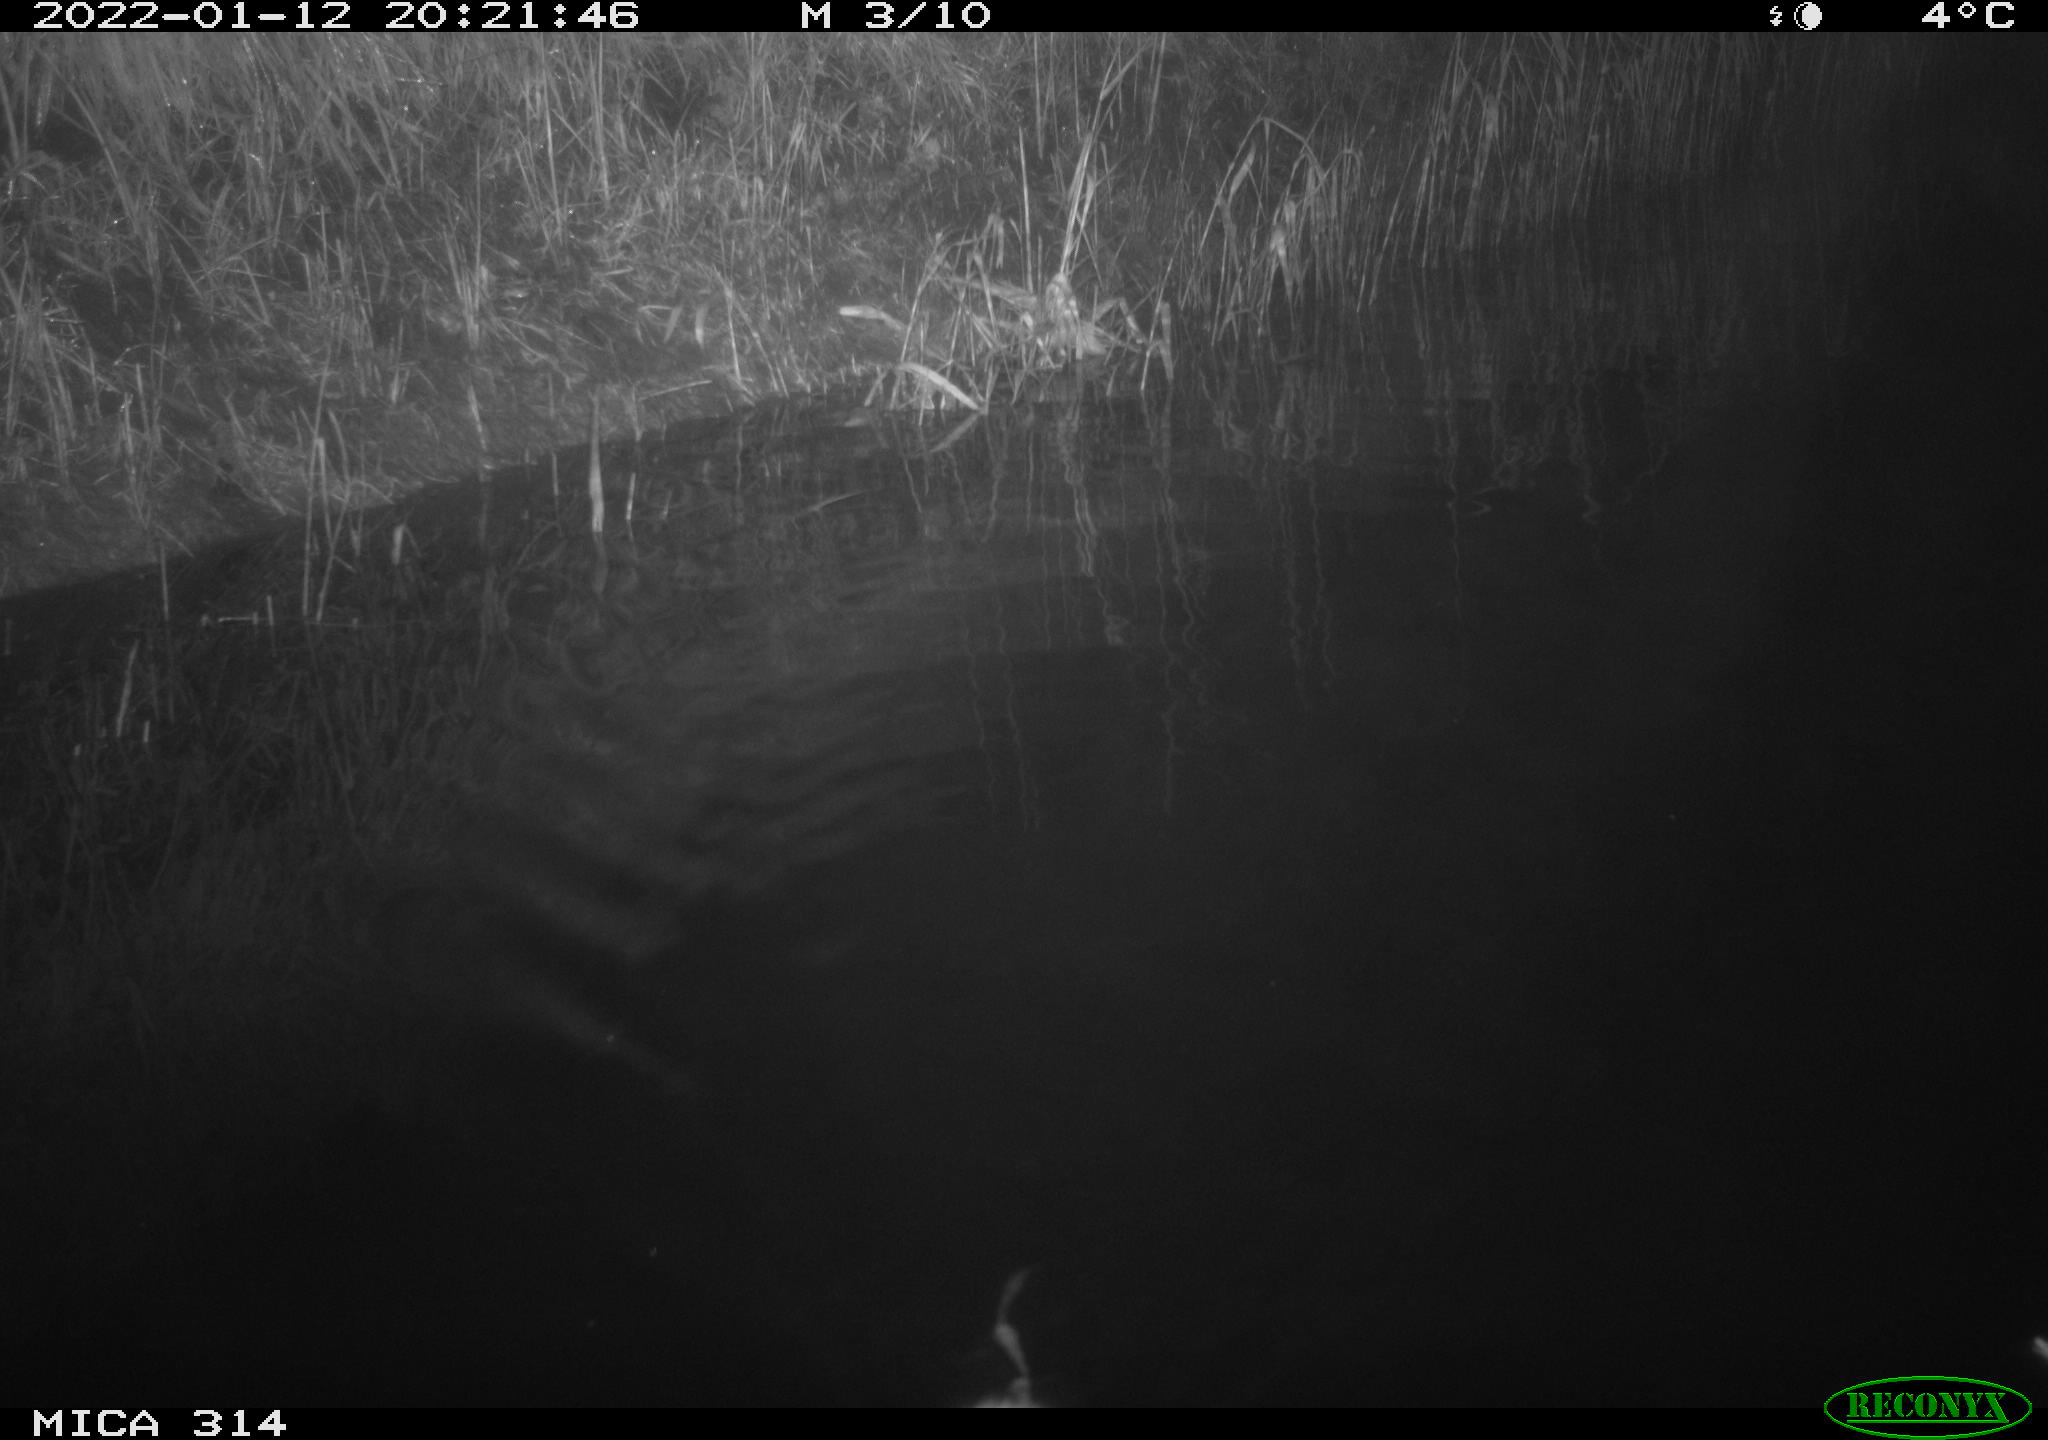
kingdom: Animalia
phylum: Chordata
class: Mammalia
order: Rodentia
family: Muridae
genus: Rattus
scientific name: Rattus norvegicus
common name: Brown rat
